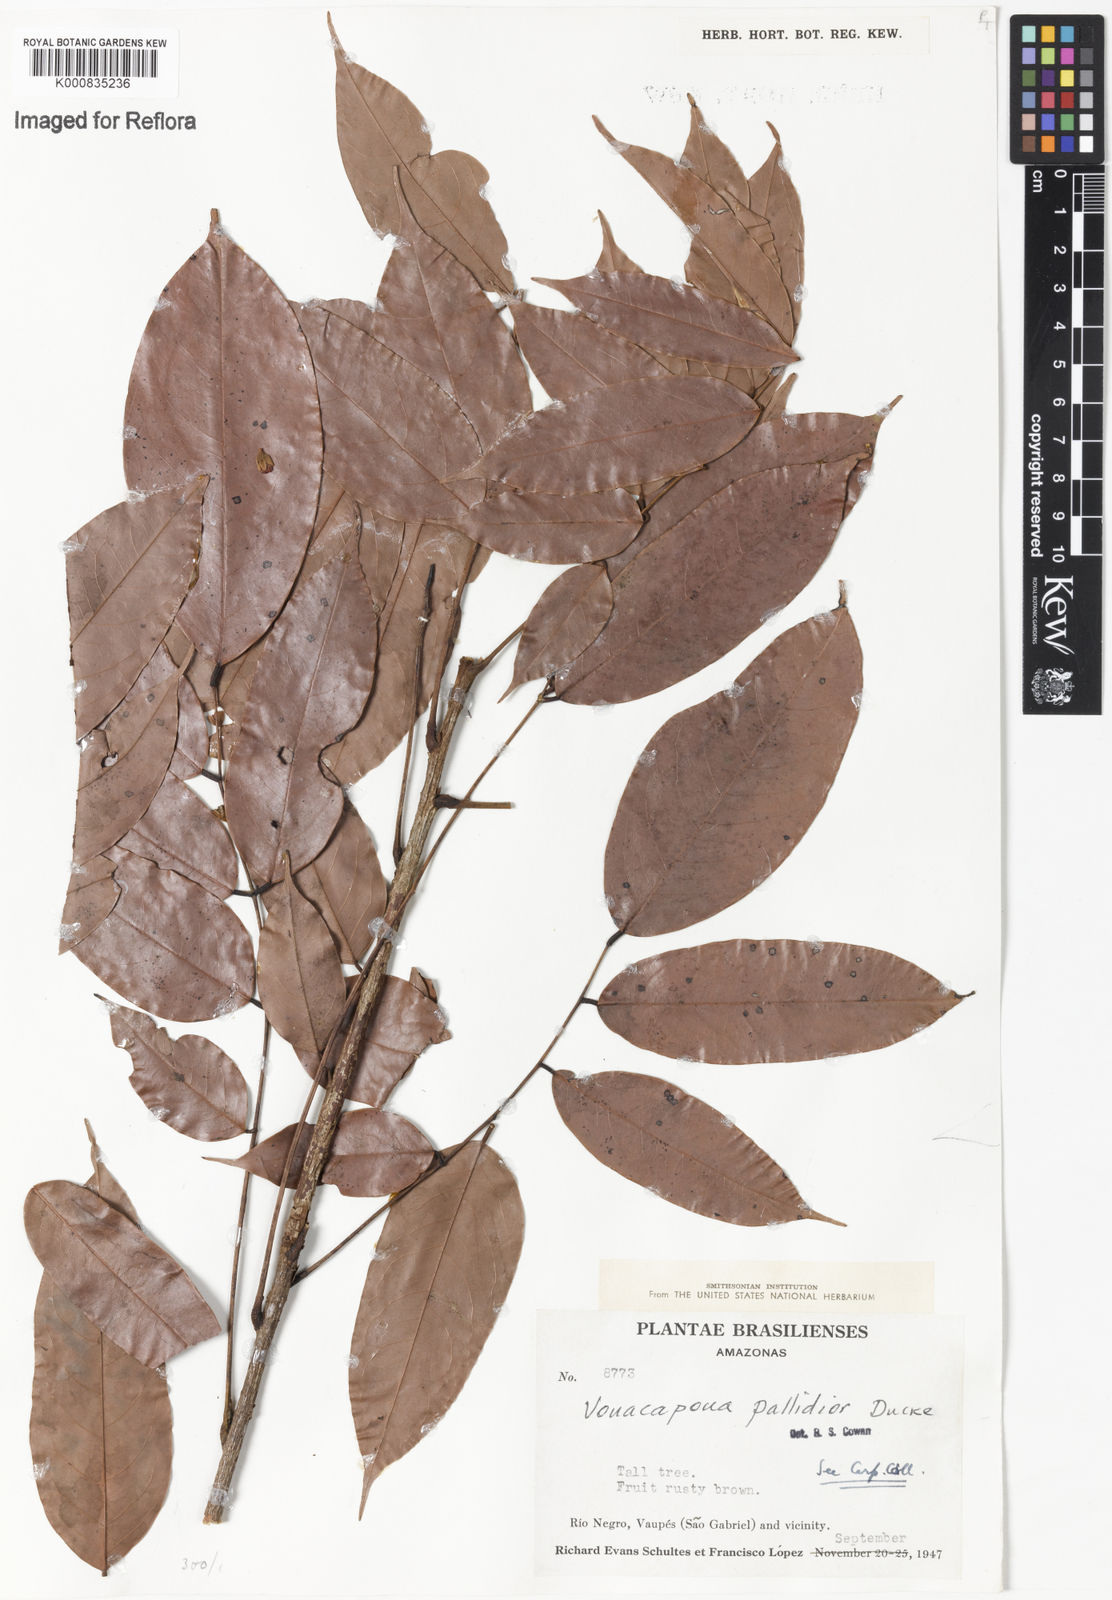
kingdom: Plantae
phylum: Tracheophyta
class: Magnoliopsida
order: Fabales
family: Fabaceae
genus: Vouacapoua
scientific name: Vouacapoua pallidior
